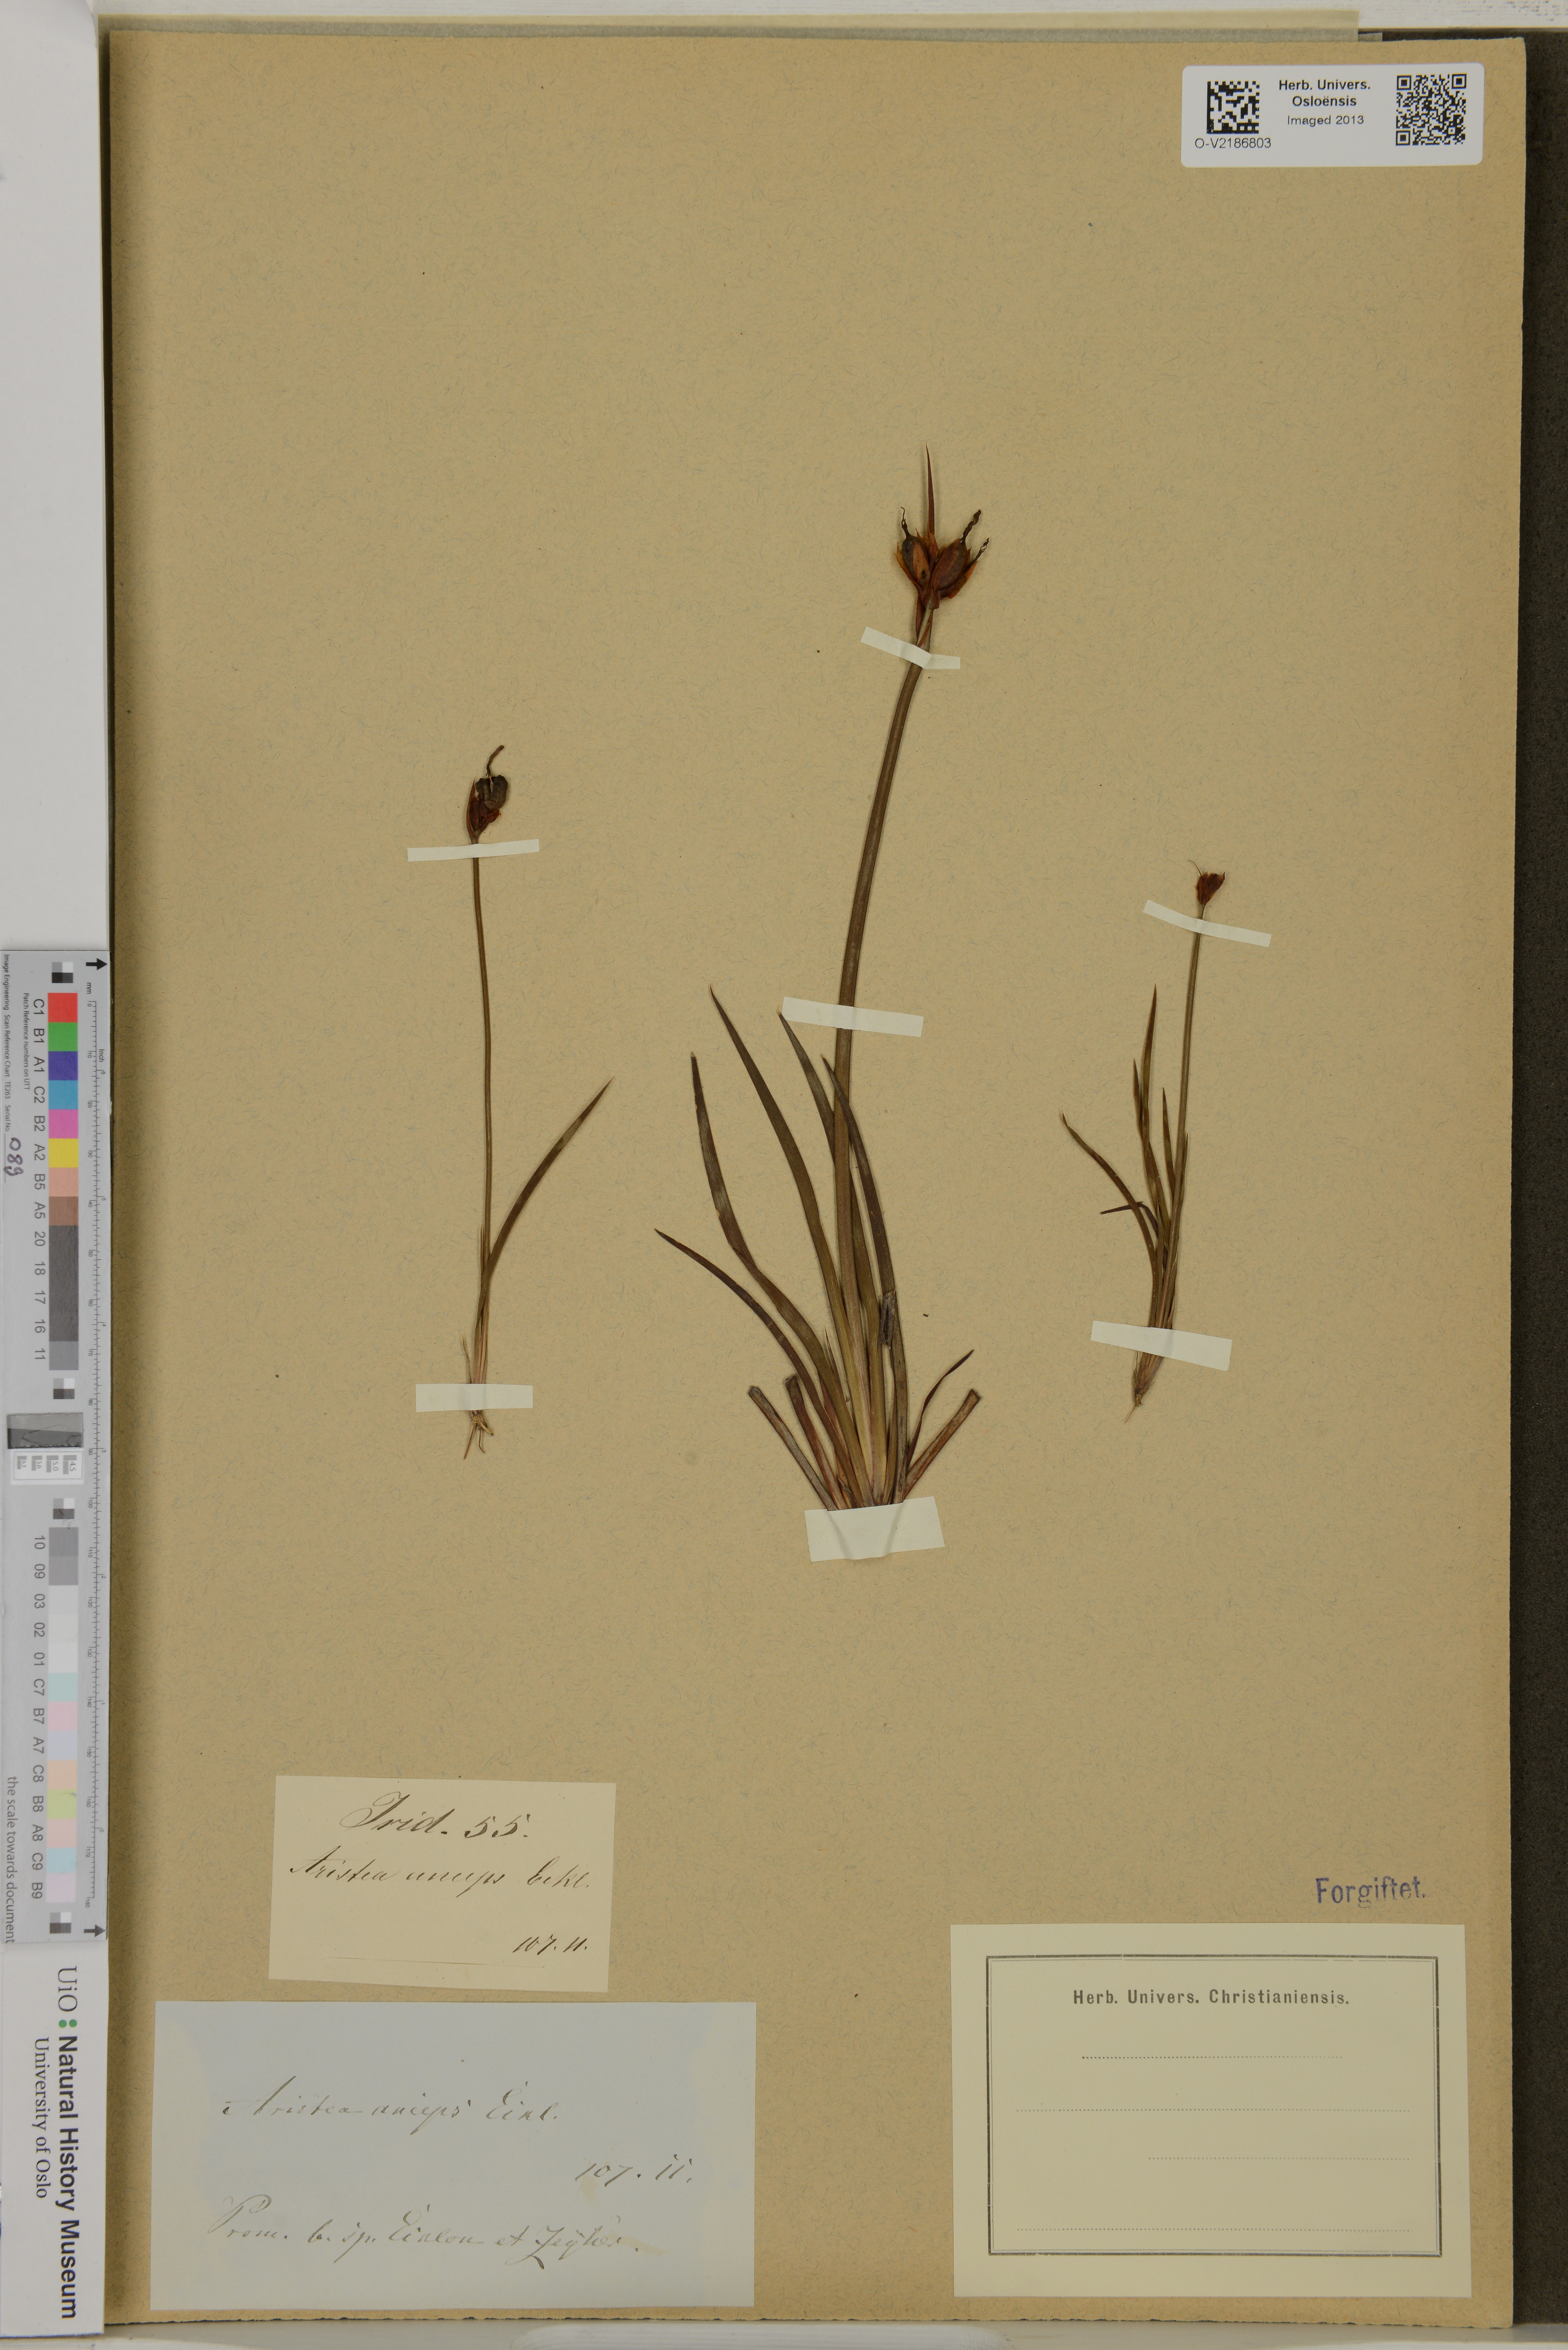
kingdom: Plantae
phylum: Tracheophyta
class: Liliopsida
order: Asparagales
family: Iridaceae
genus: Aristea
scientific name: Aristea anceps
